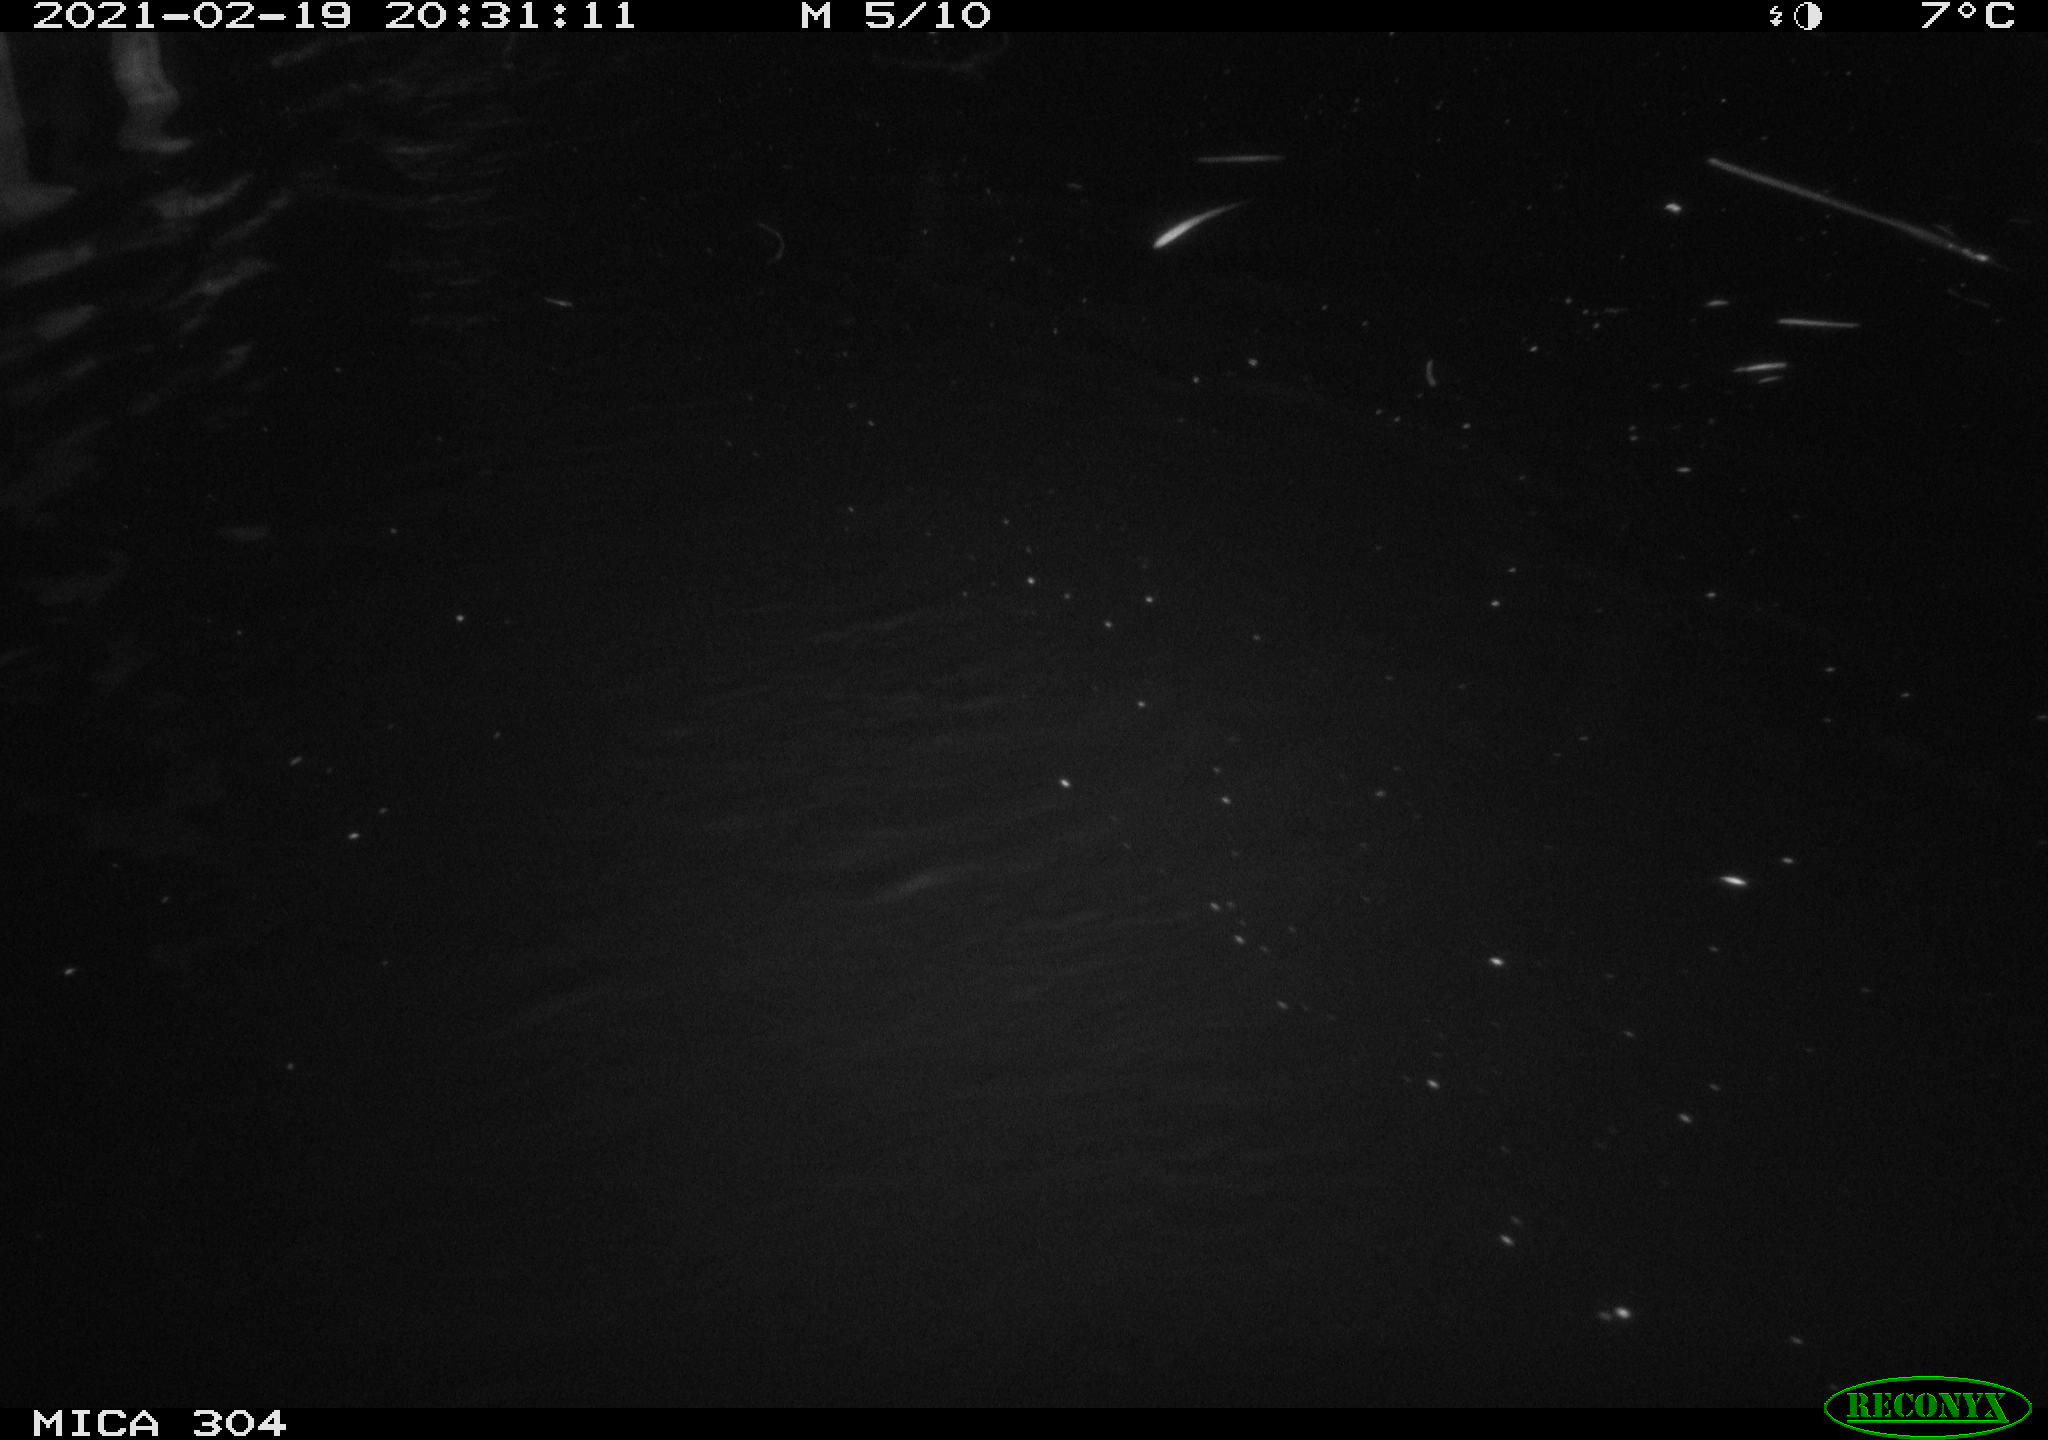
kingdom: Animalia
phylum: Chordata
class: Mammalia
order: Rodentia
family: Cricetidae
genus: Ondatra
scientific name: Ondatra zibethicus
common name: Muskrat
